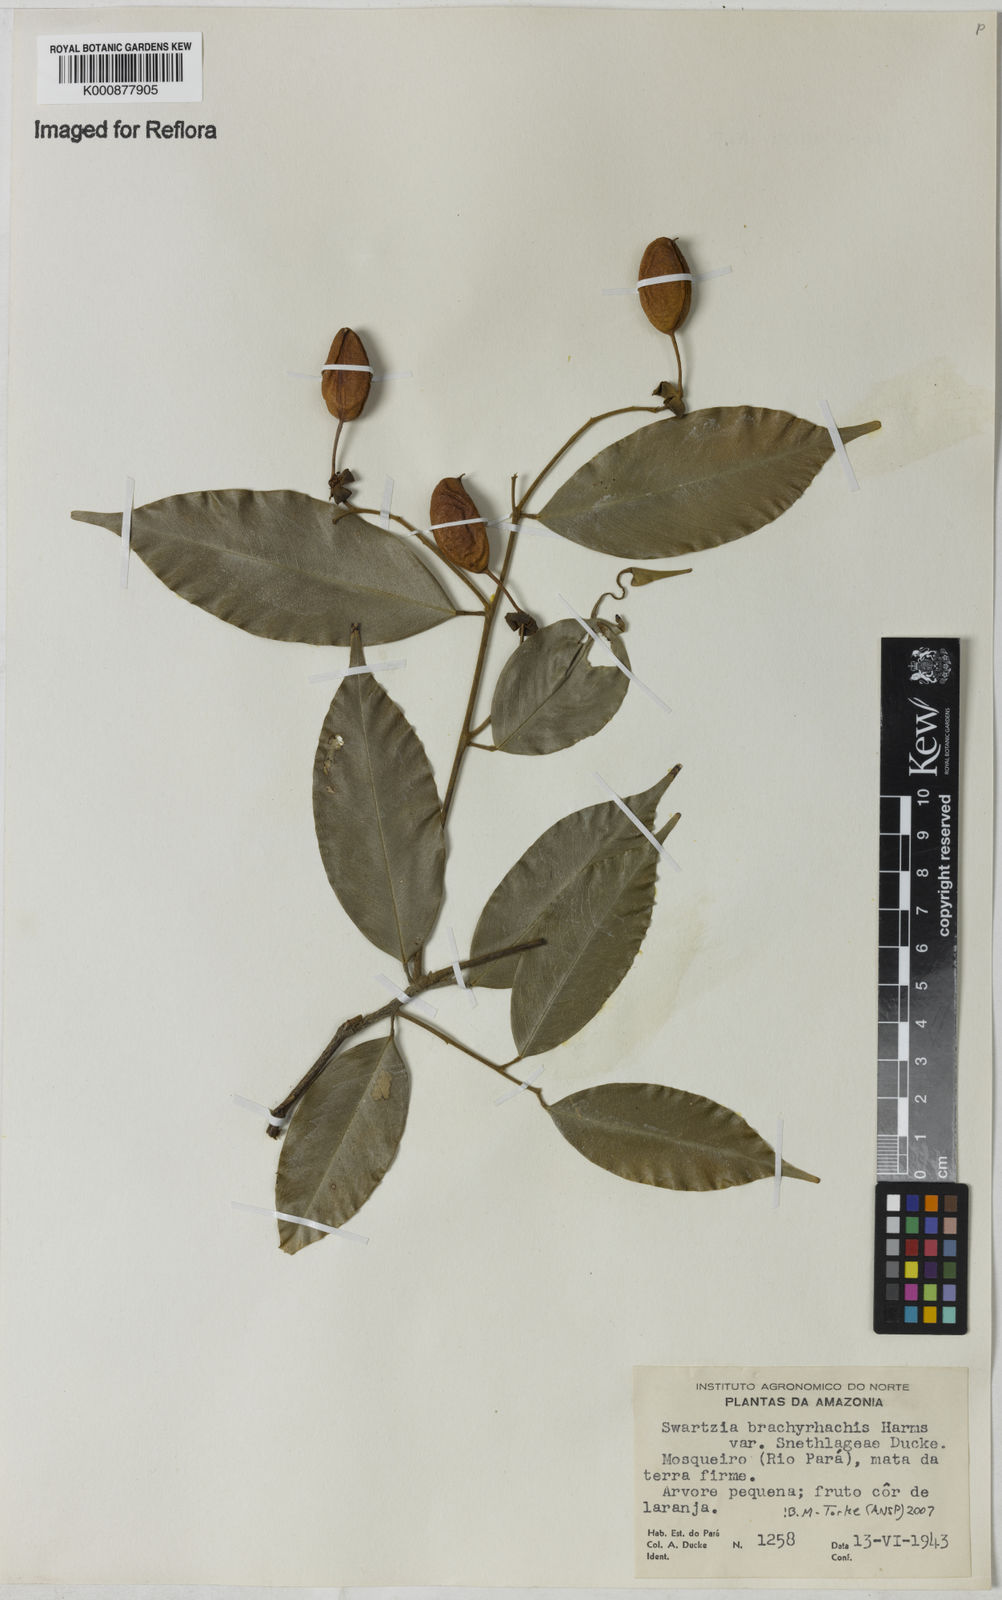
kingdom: Plantae
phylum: Tracheophyta
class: Magnoliopsida
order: Fabales
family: Fabaceae
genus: Swartzia
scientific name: Swartzia
